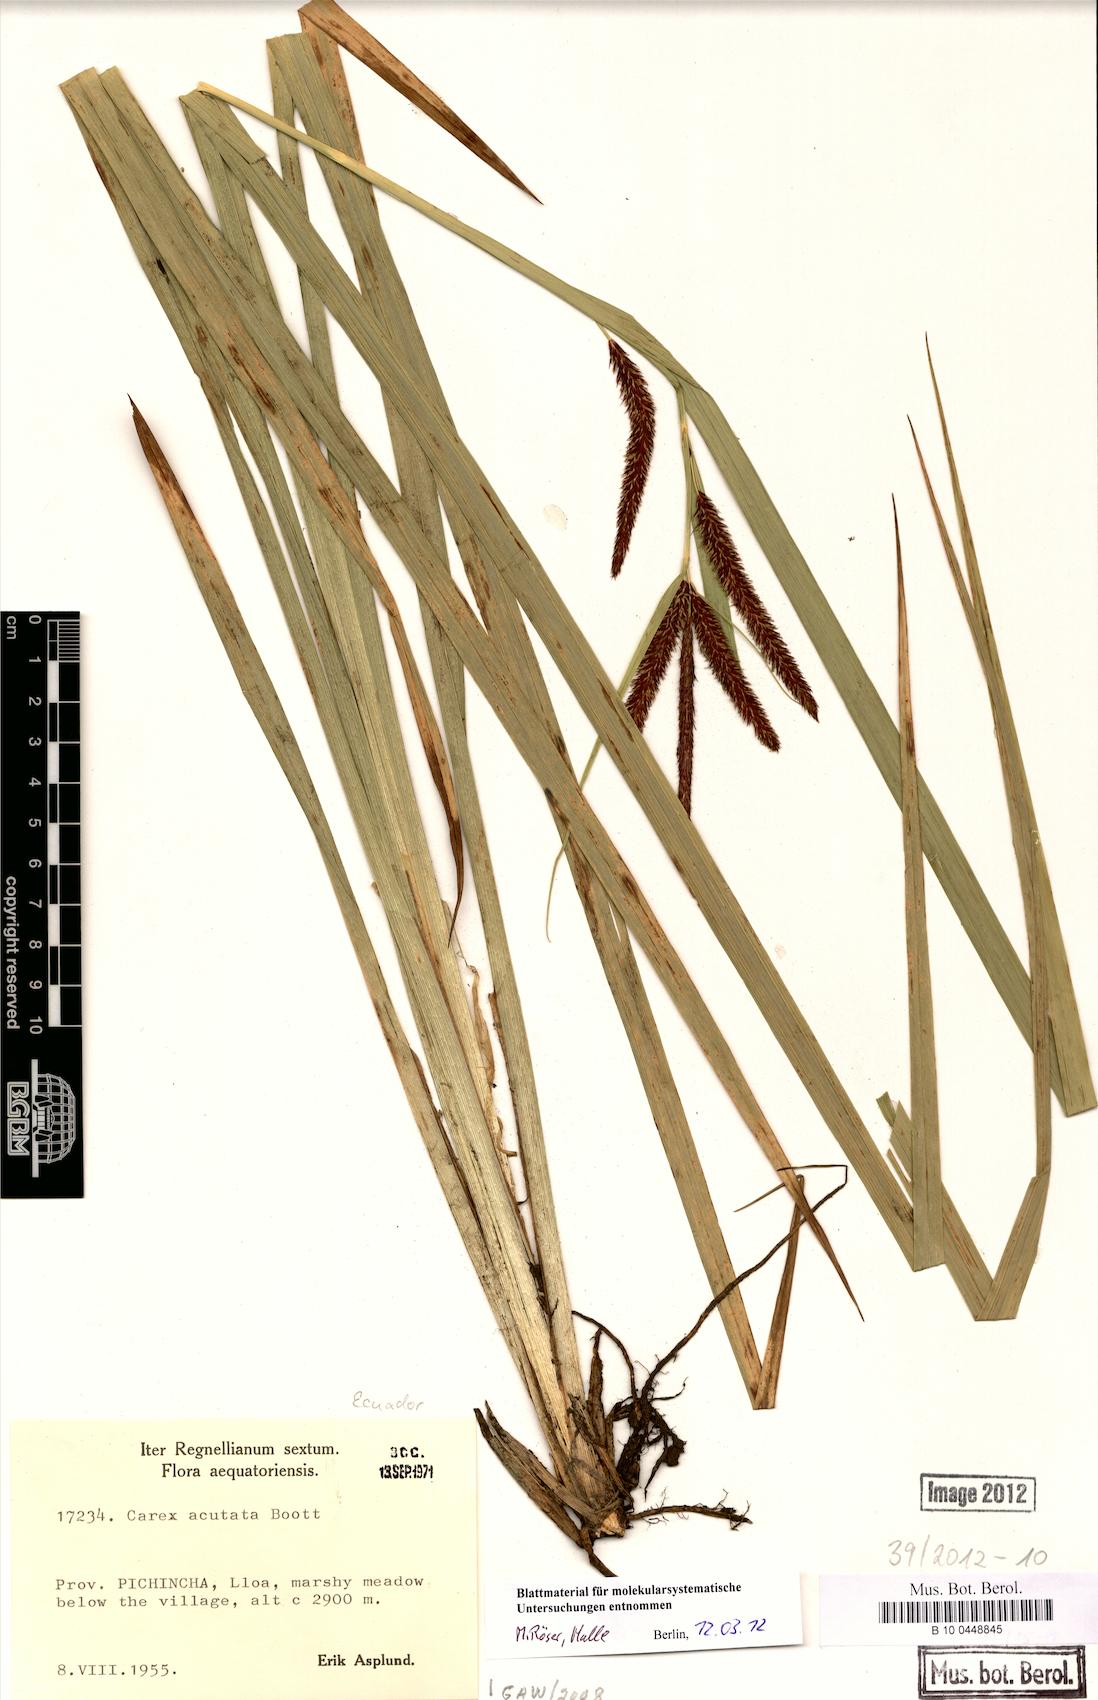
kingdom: Plantae
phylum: Tracheophyta
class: Liliopsida
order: Poales
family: Cyperaceae
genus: Carex
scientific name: Carex acutata
